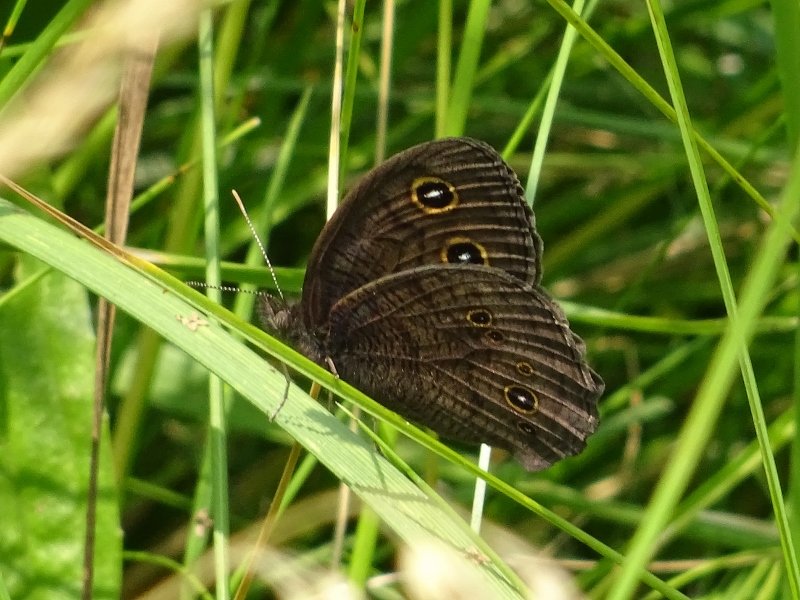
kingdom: Animalia
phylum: Arthropoda
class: Insecta
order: Lepidoptera
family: Nymphalidae
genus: Cercyonis
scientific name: Cercyonis pegala
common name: Common Wood-Nymph
